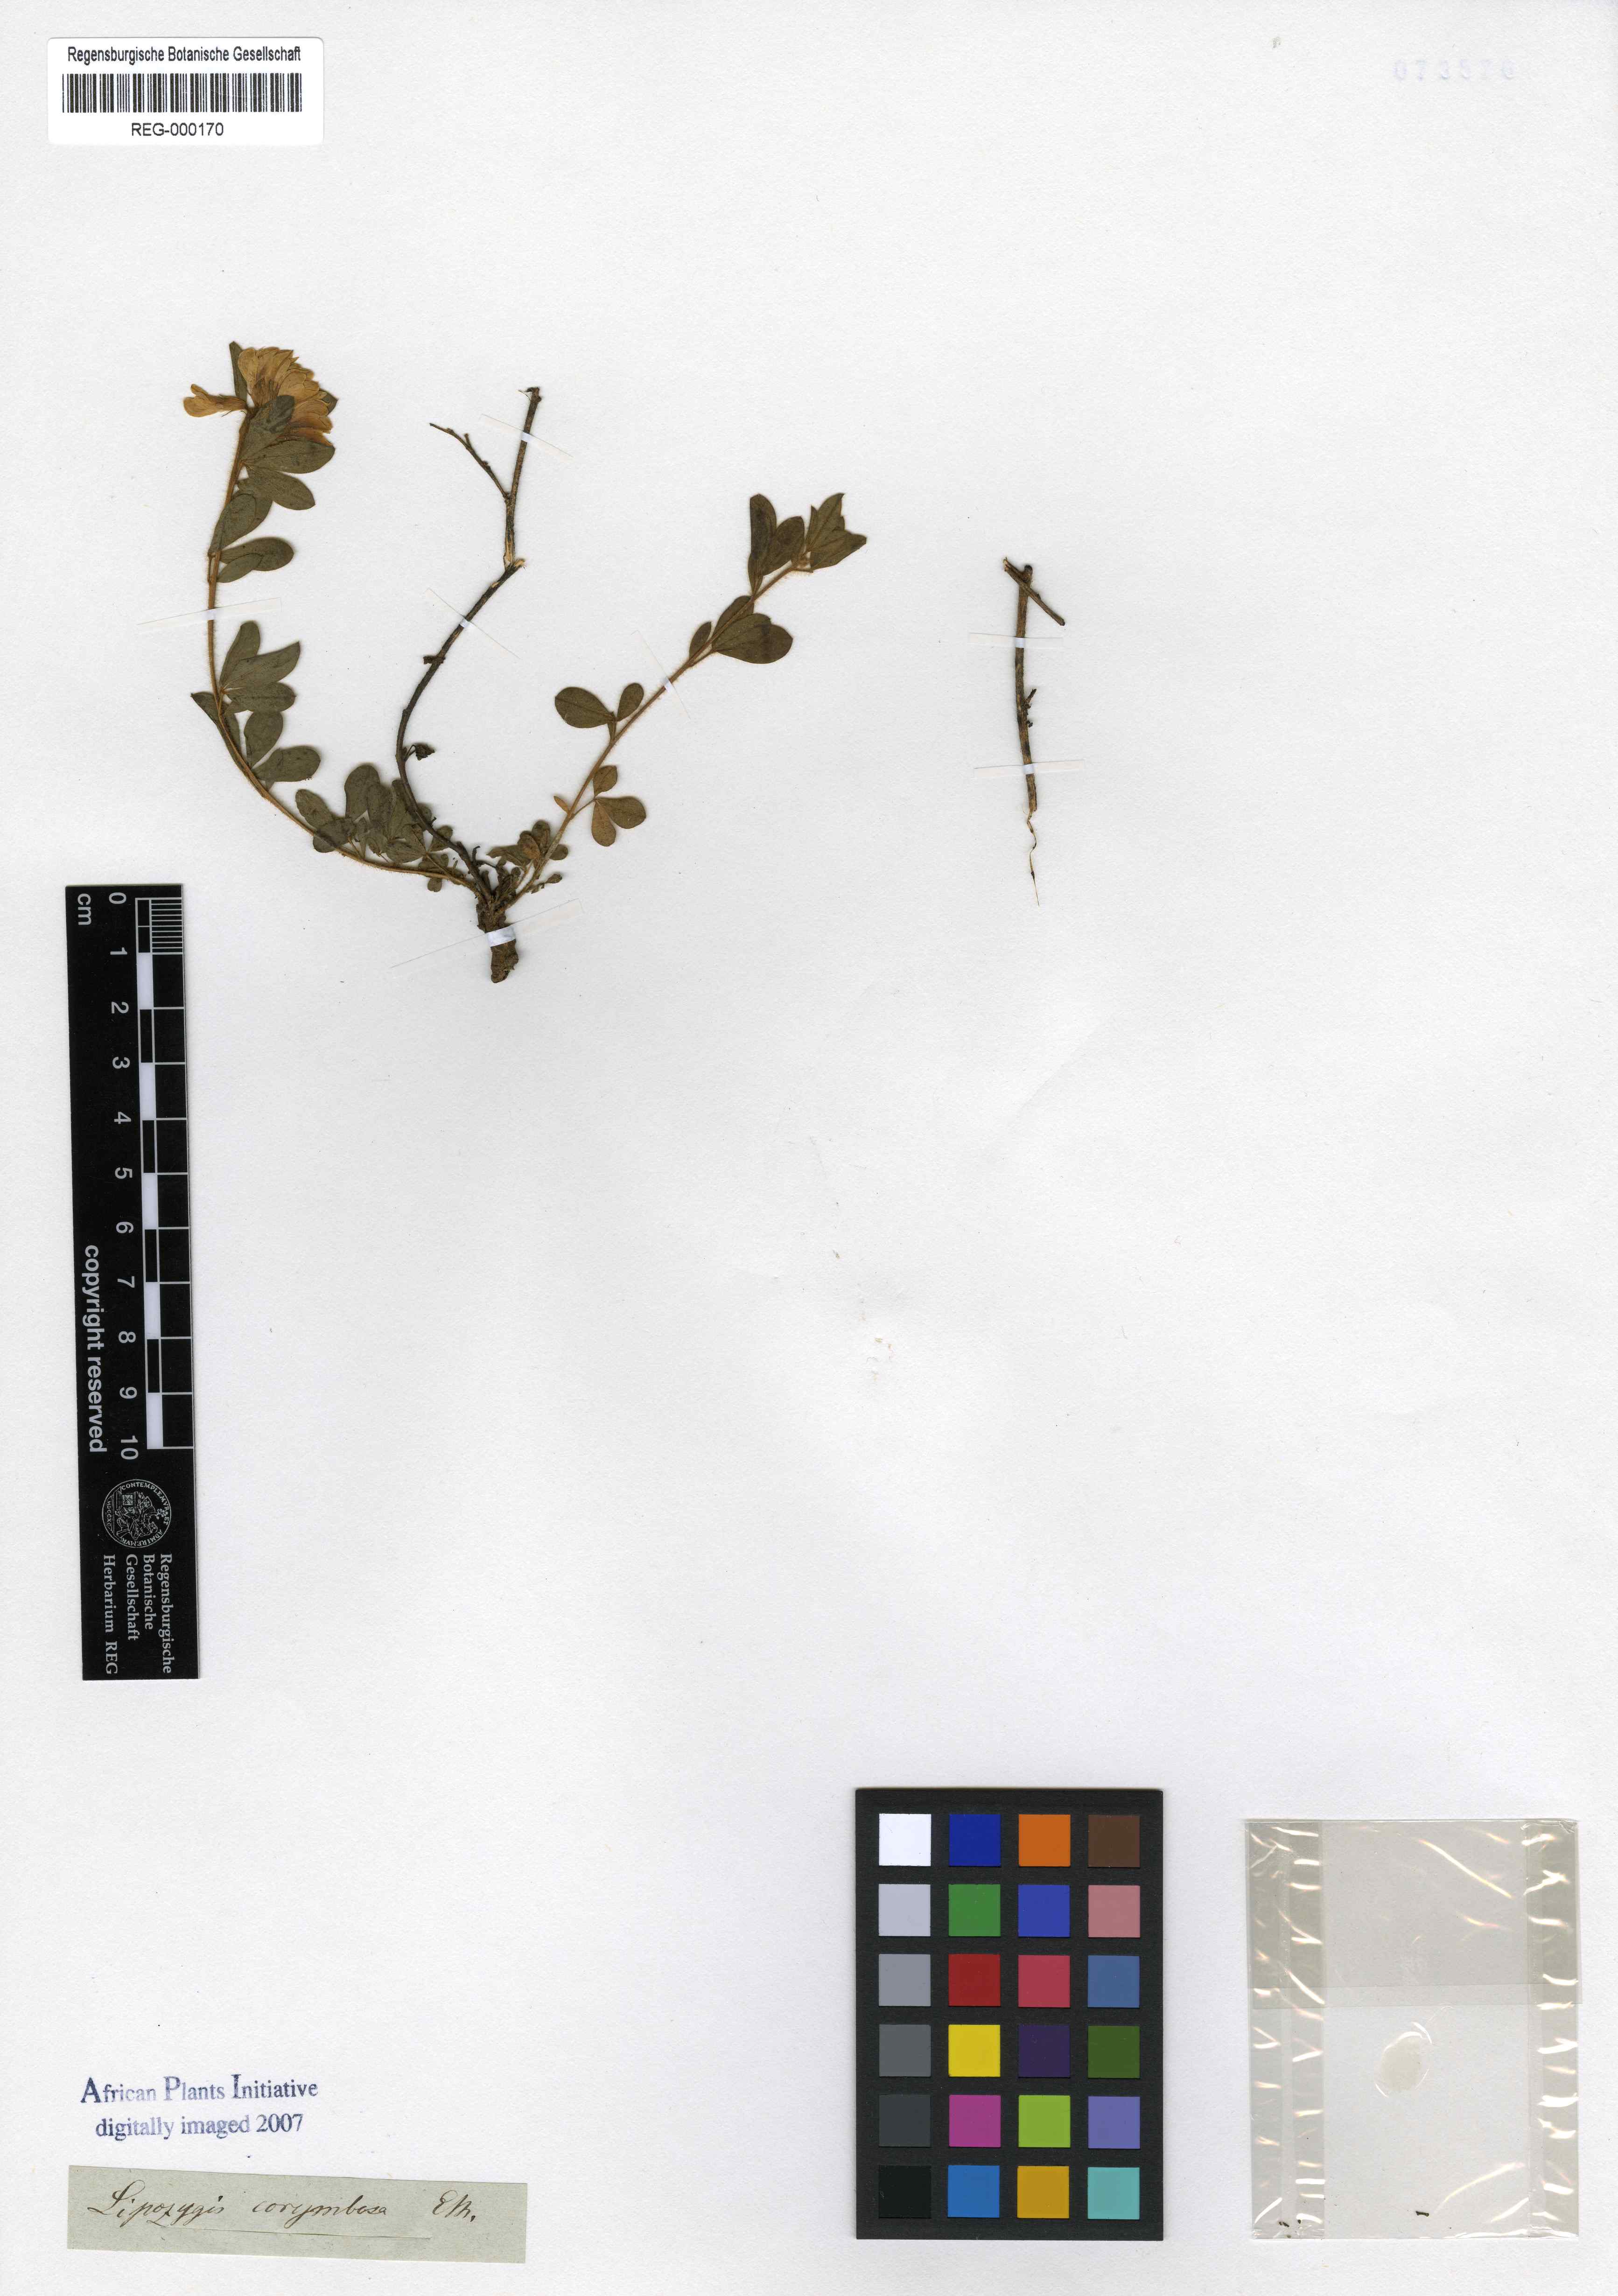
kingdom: Plantae
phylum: Tracheophyta
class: Magnoliopsida
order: Fabales
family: Fabaceae
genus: Leobordea
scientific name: Leobordea corymbosa
